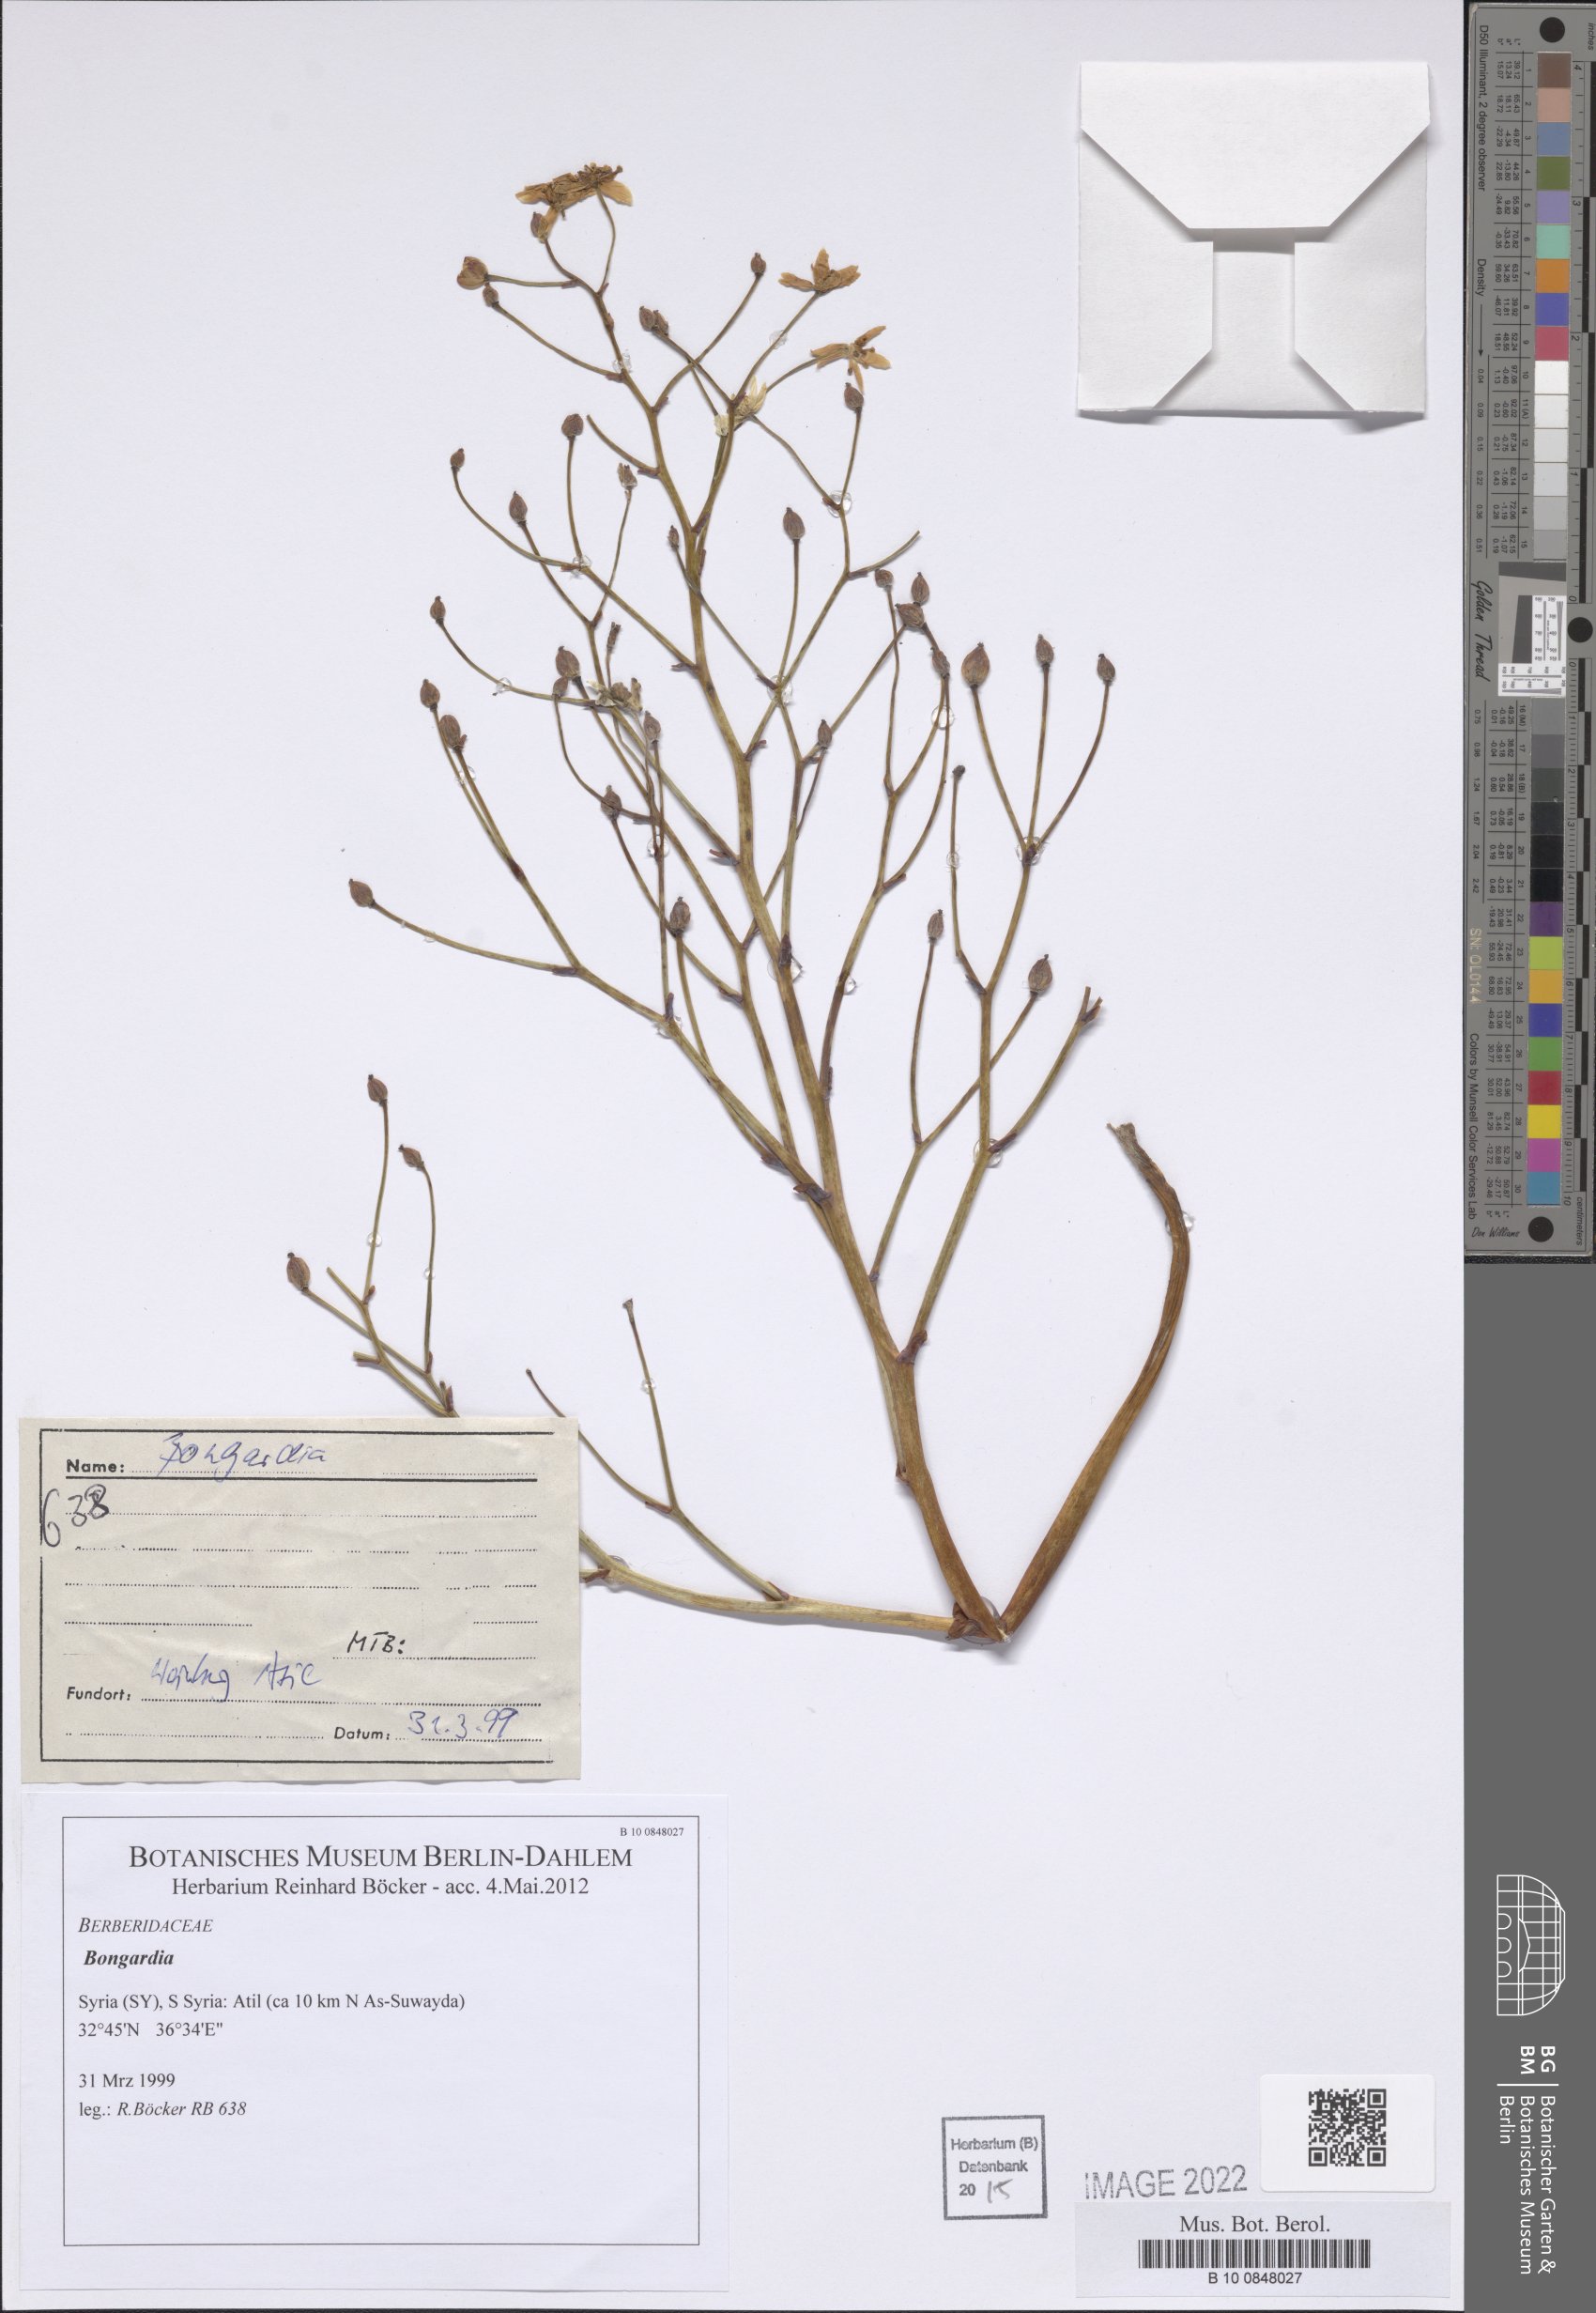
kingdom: Plantae
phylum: Tracheophyta
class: Magnoliopsida
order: Ranunculales
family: Berberidaceae
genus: Bongardia
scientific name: Bongardia
